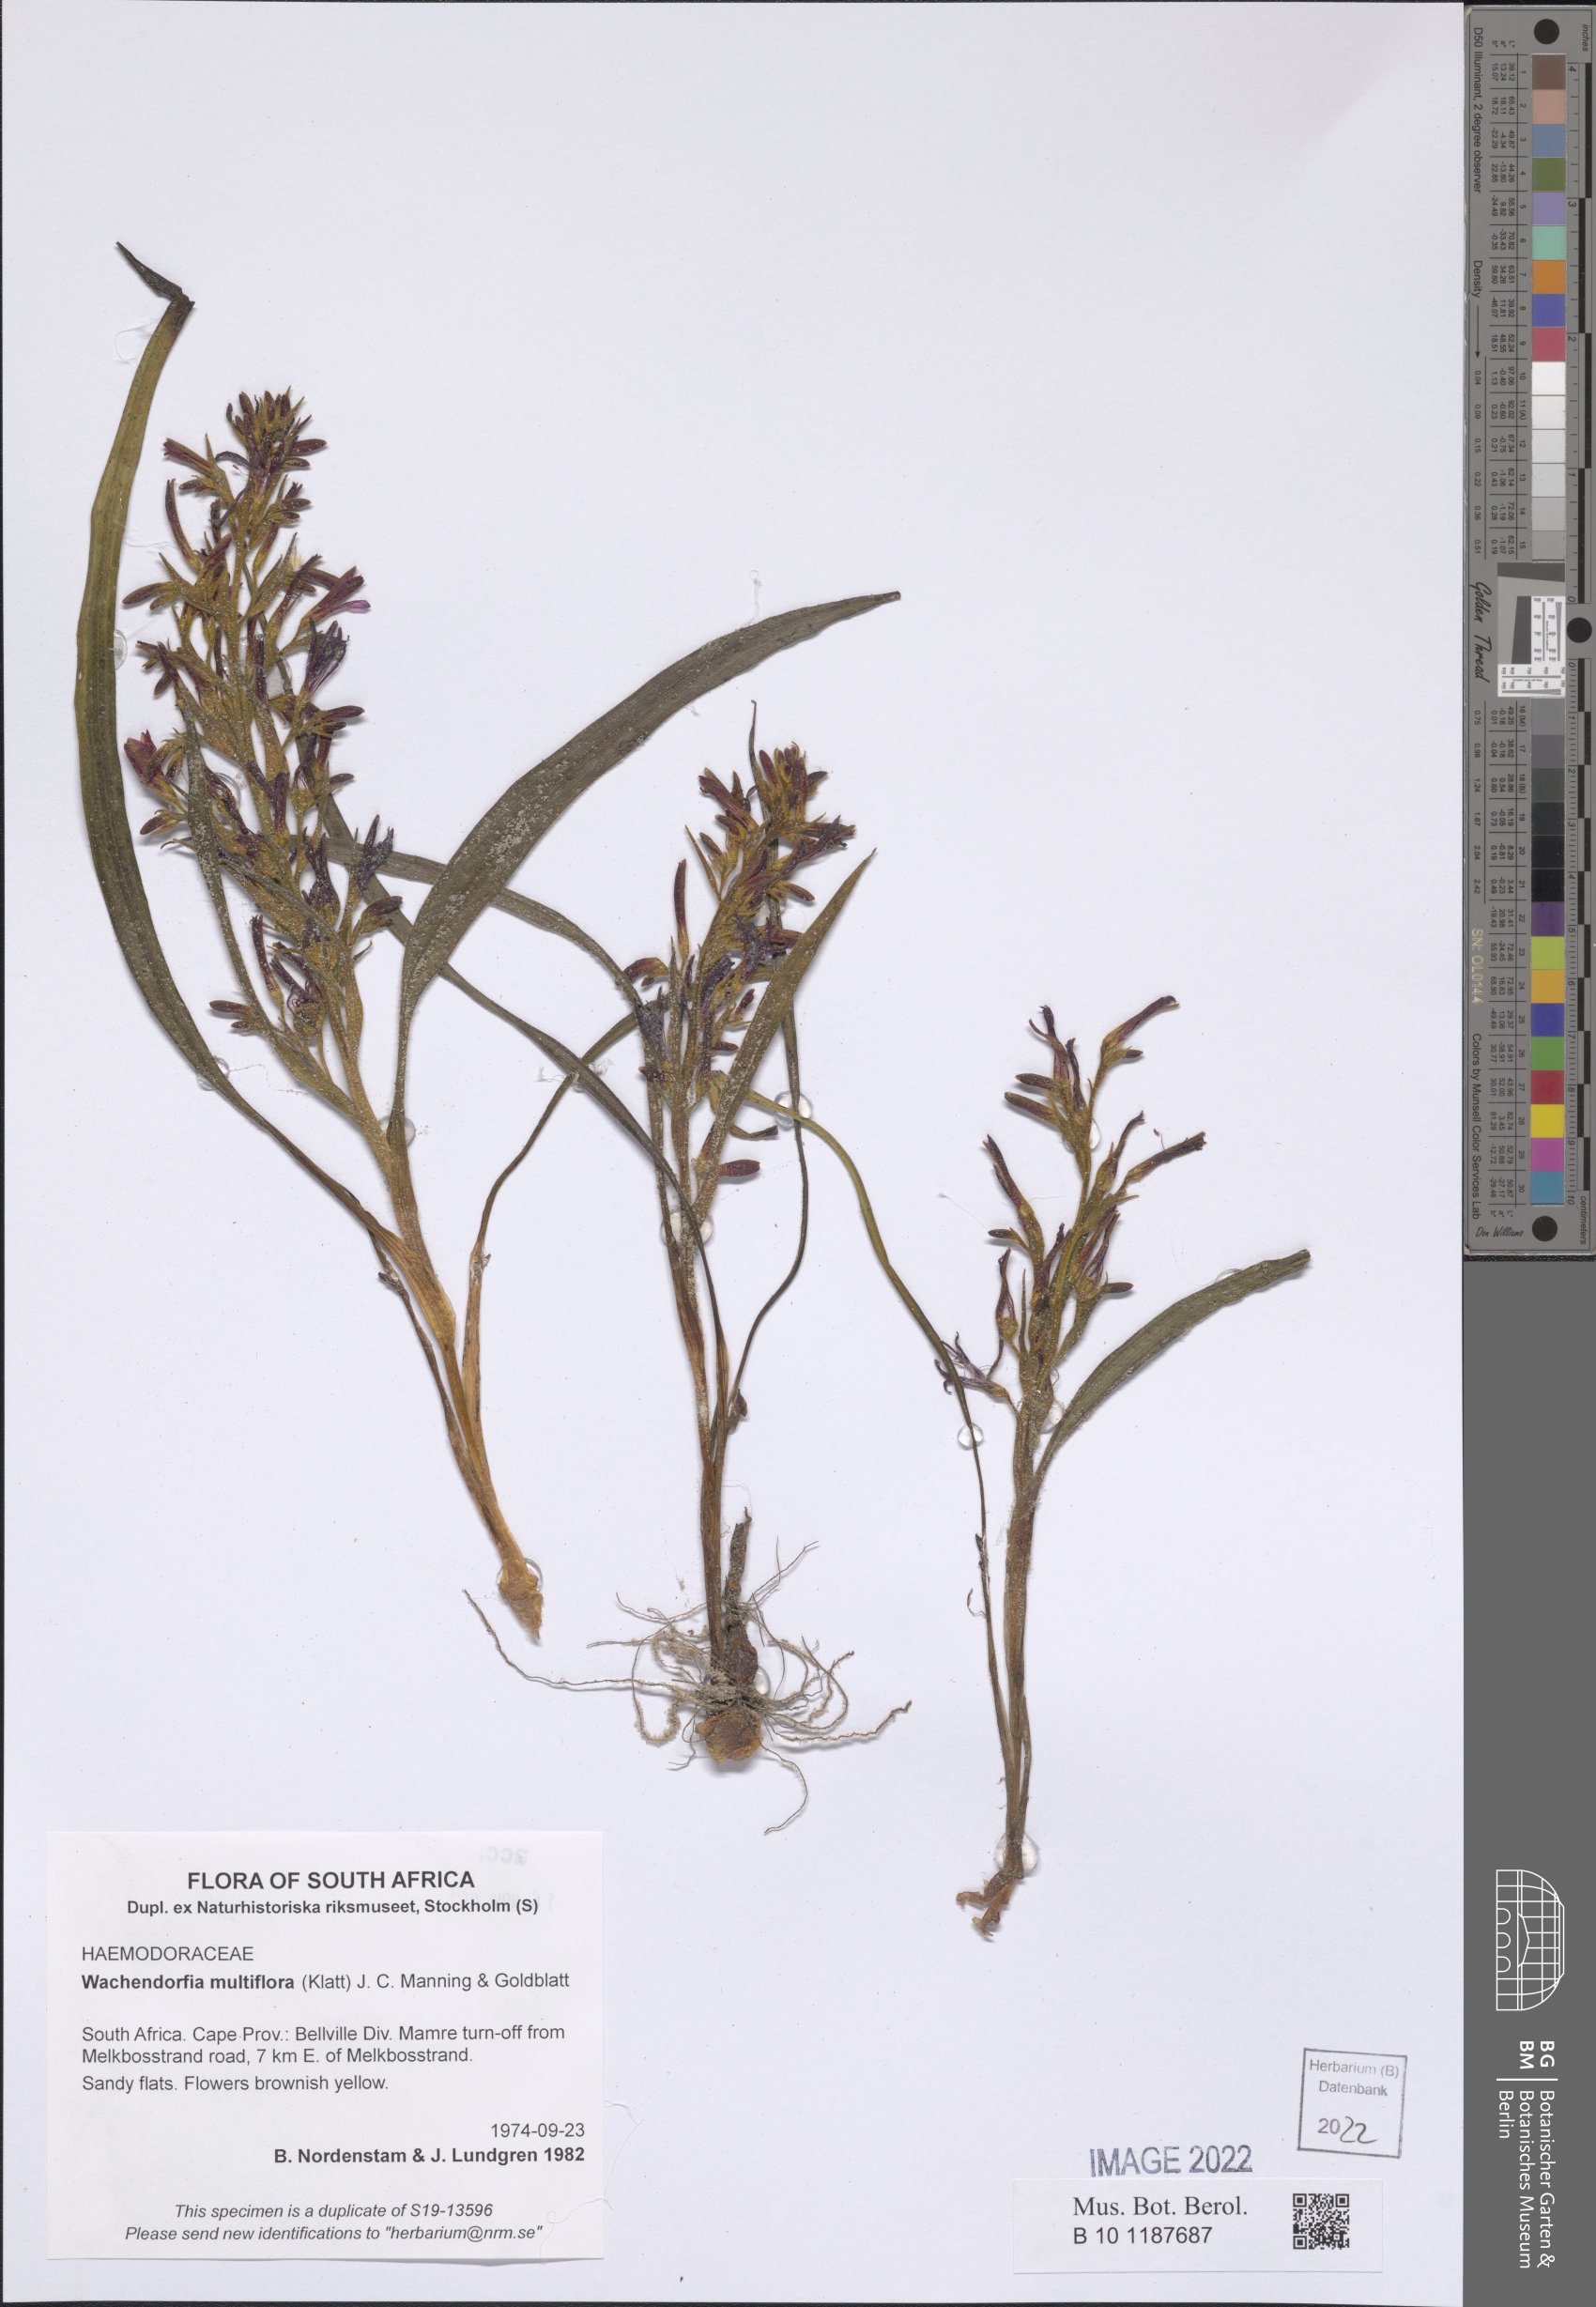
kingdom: Plantae
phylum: Tracheophyta
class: Liliopsida
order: Commelinales
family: Haemodoraceae
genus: Wachendorfia
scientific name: Wachendorfia multiflora
